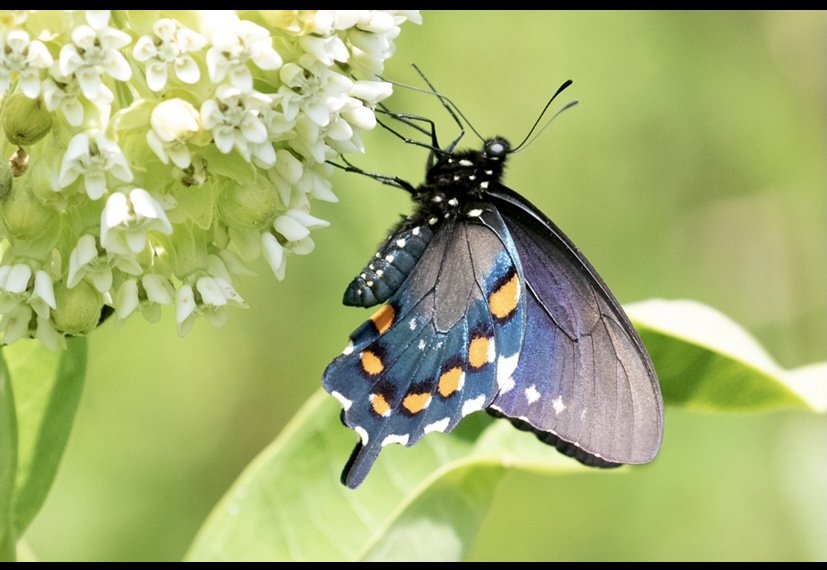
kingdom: Animalia
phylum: Arthropoda
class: Insecta
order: Lepidoptera
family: Papilionidae
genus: Battus
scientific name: Battus philenor
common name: Pipevine Swallowtail
